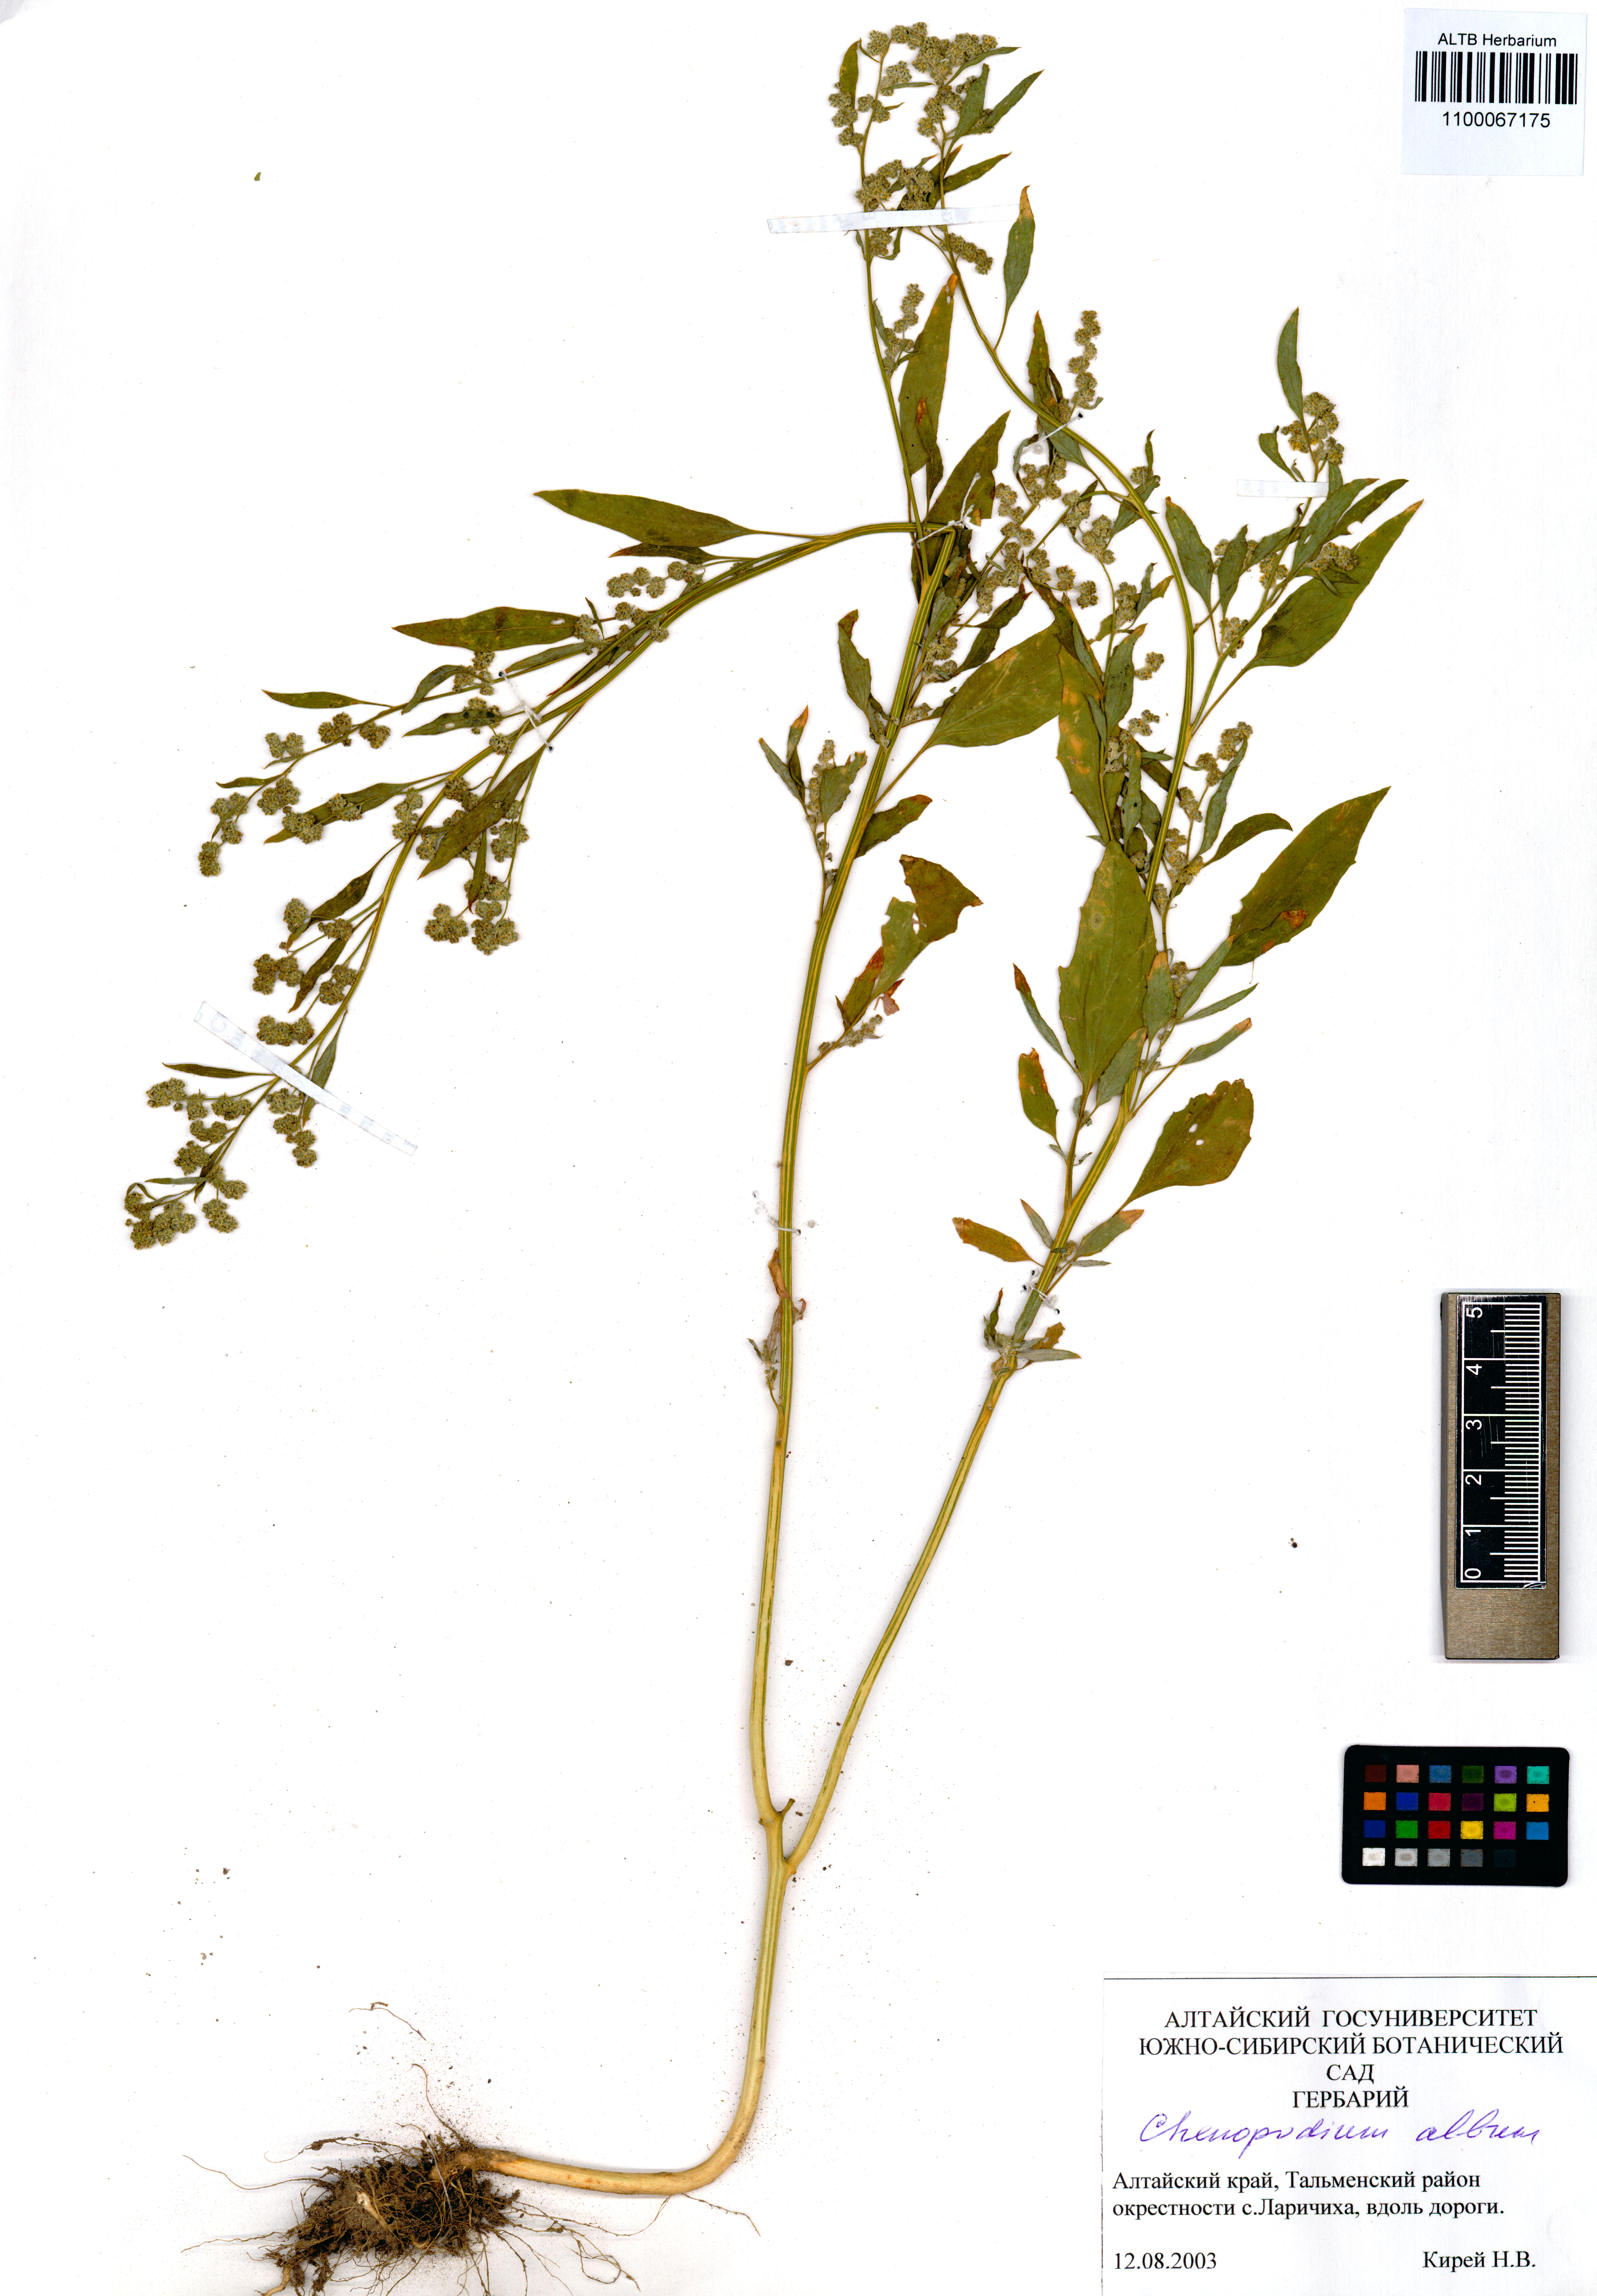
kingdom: Plantae
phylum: Tracheophyta
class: Magnoliopsida
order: Caryophyllales
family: Amaranthaceae
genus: Chenopodium
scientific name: Chenopodium album
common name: Fat-hen
